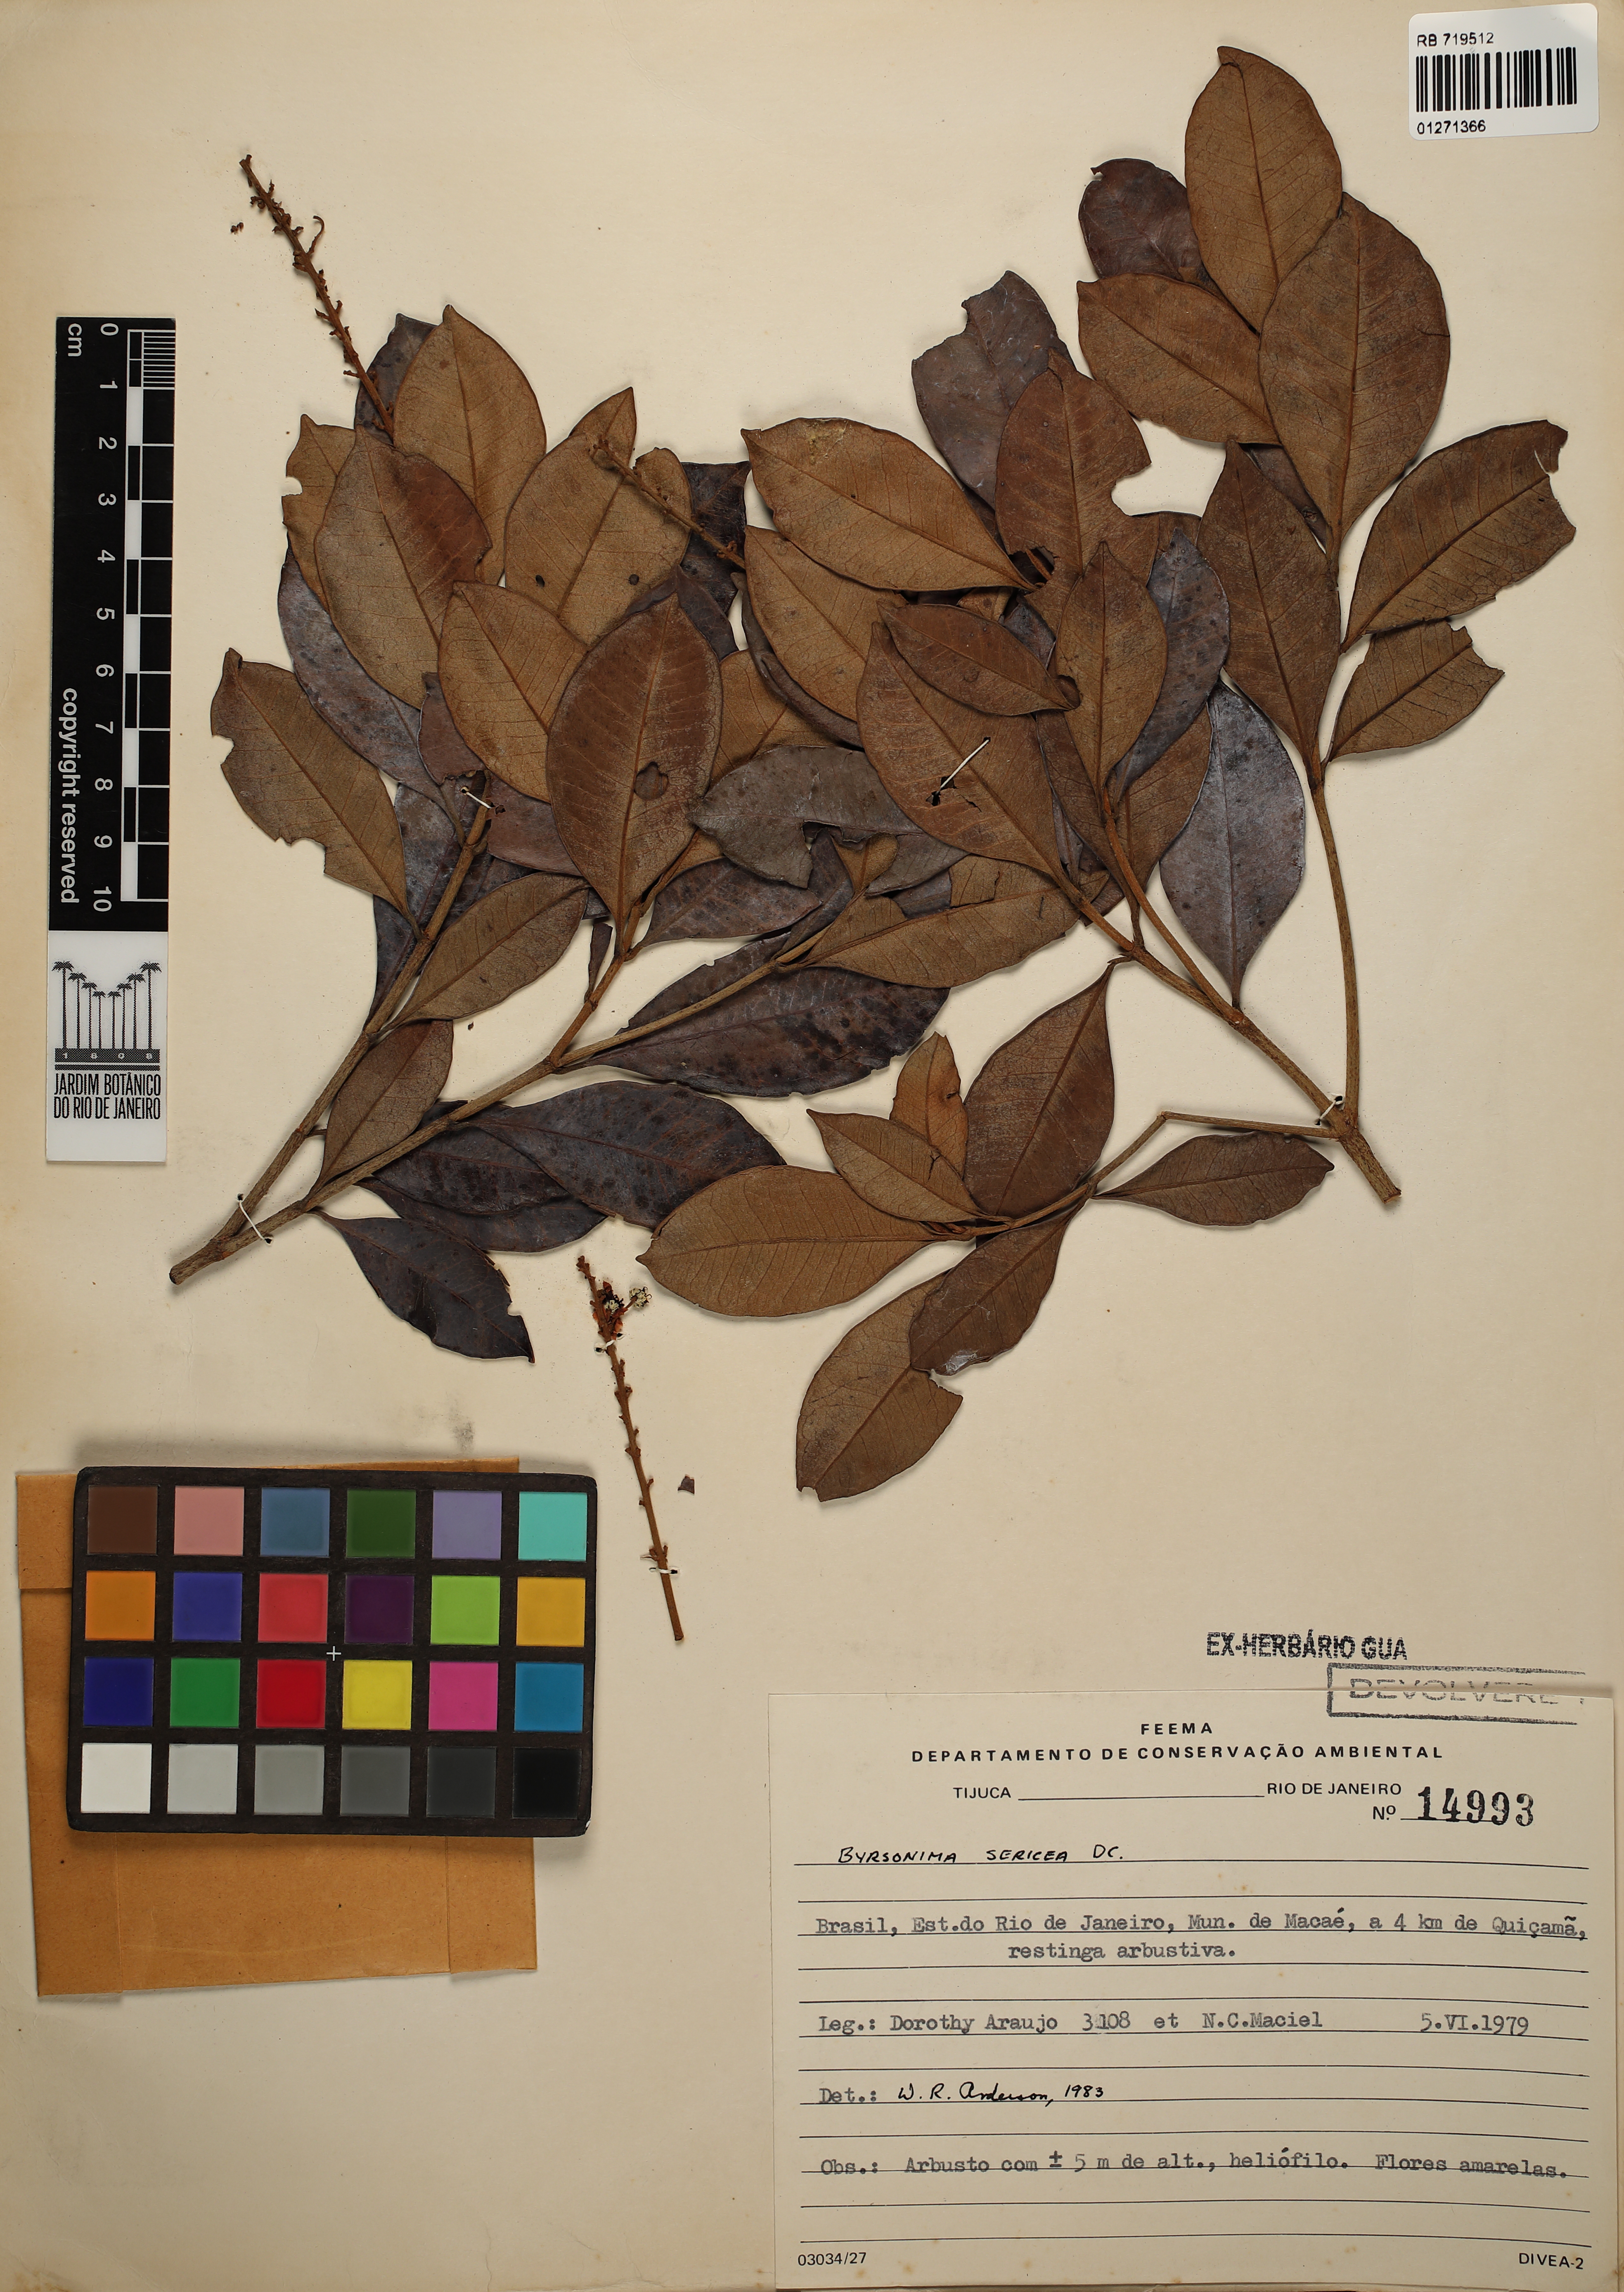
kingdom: Plantae
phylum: Tracheophyta
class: Magnoliopsida
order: Malpighiales
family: Malpighiaceae
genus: Byrsonima
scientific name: Byrsonima sericea
